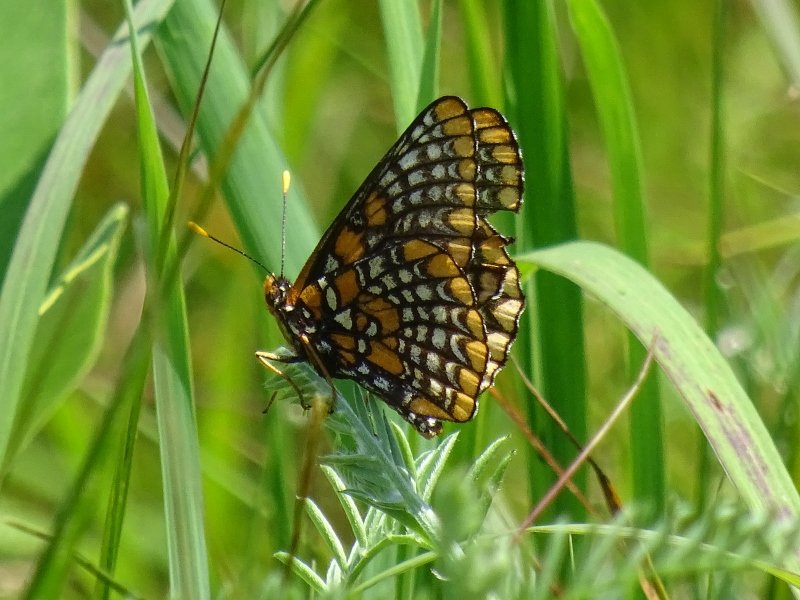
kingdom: Animalia
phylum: Arthropoda
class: Insecta
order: Lepidoptera
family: Nymphalidae
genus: Euphydryas
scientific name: Euphydryas phaeton
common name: Baltimore Checkerspot
